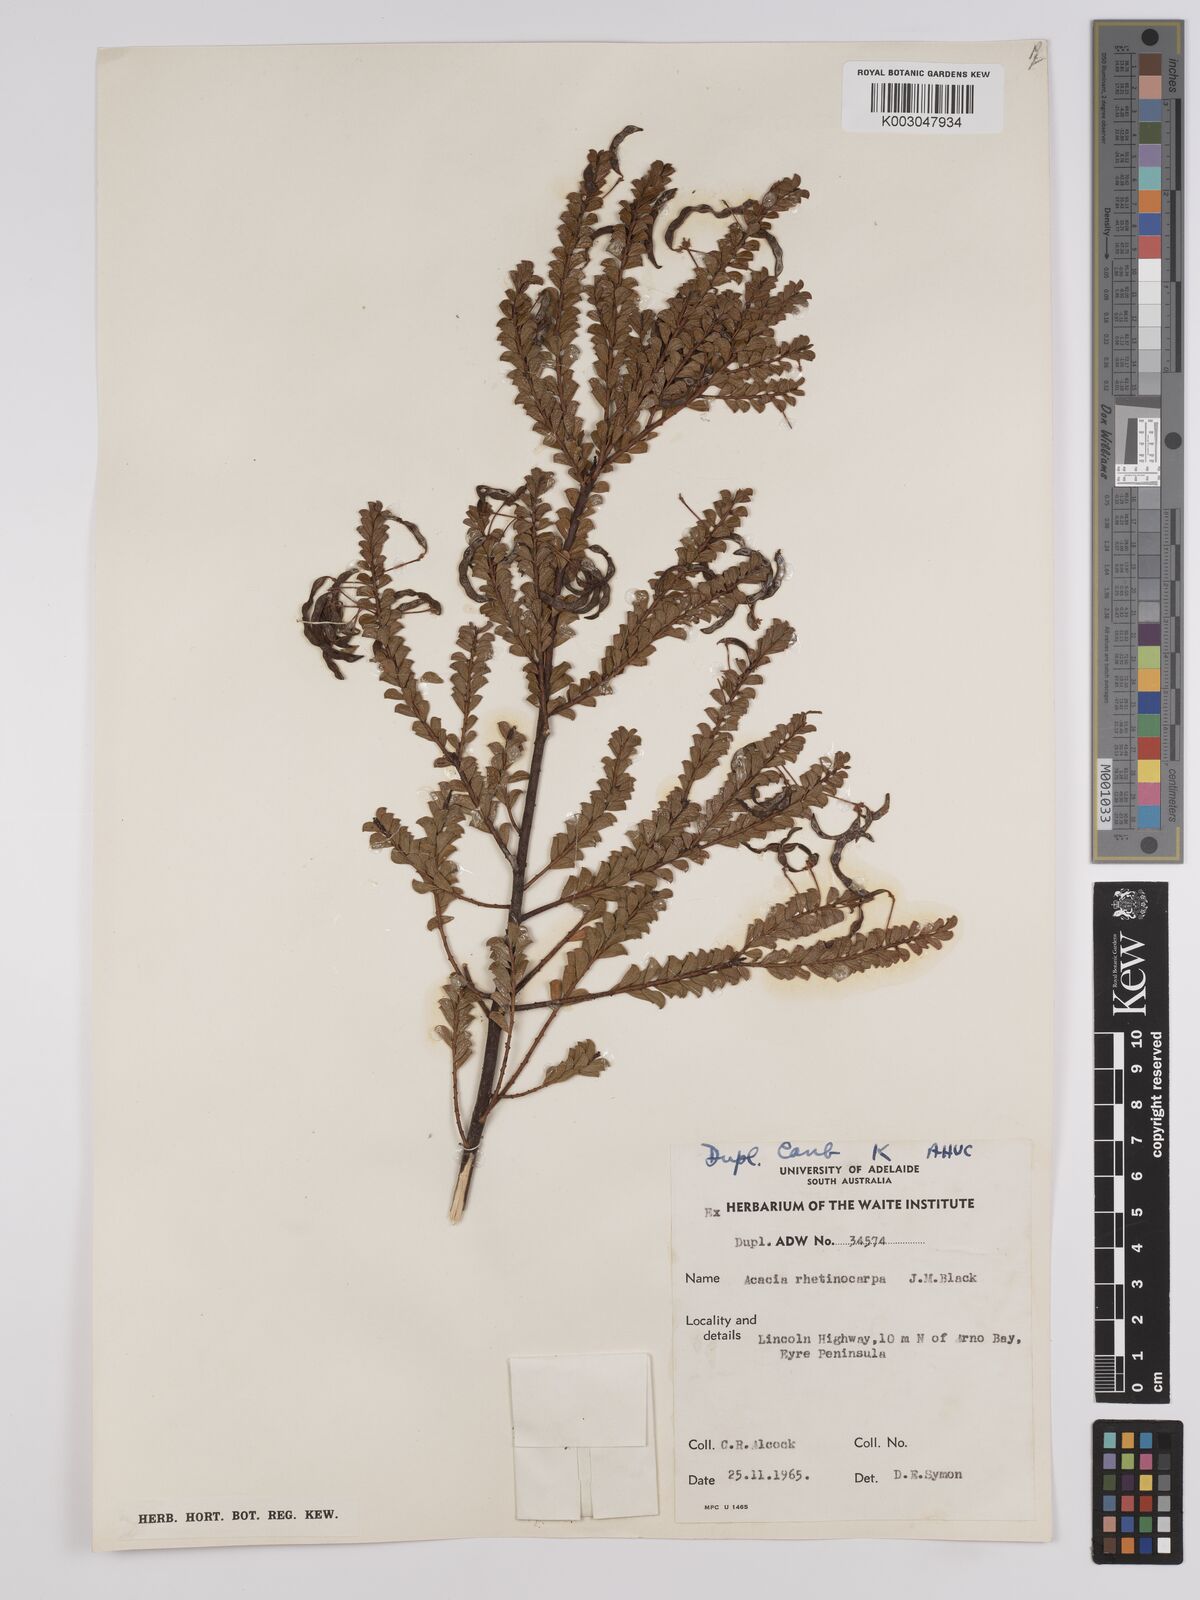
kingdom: Plantae
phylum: Tracheophyta
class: Magnoliopsida
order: Fabales
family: Fabaceae
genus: Acacia
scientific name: Acacia brachyclada
